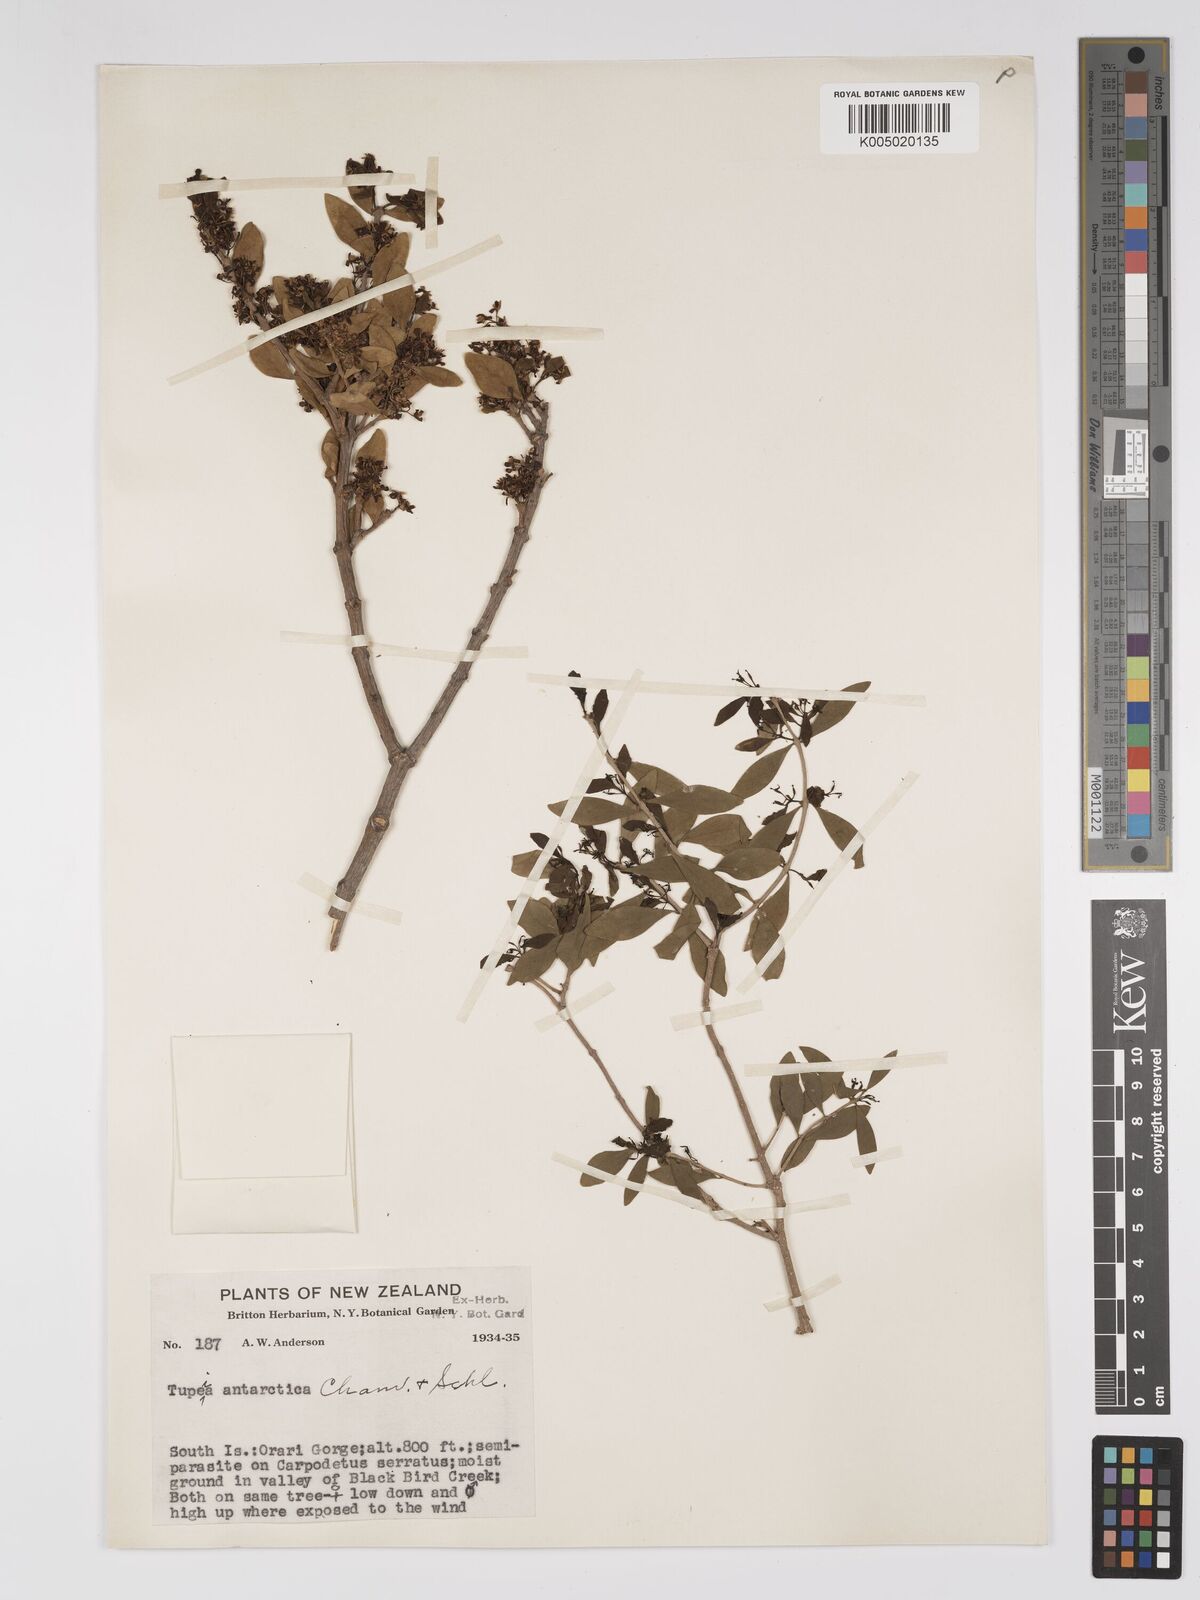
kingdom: Plantae
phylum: Tracheophyta
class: Magnoliopsida
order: Santalales
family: Loranthaceae
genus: Tupeia
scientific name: Tupeia antarctica
